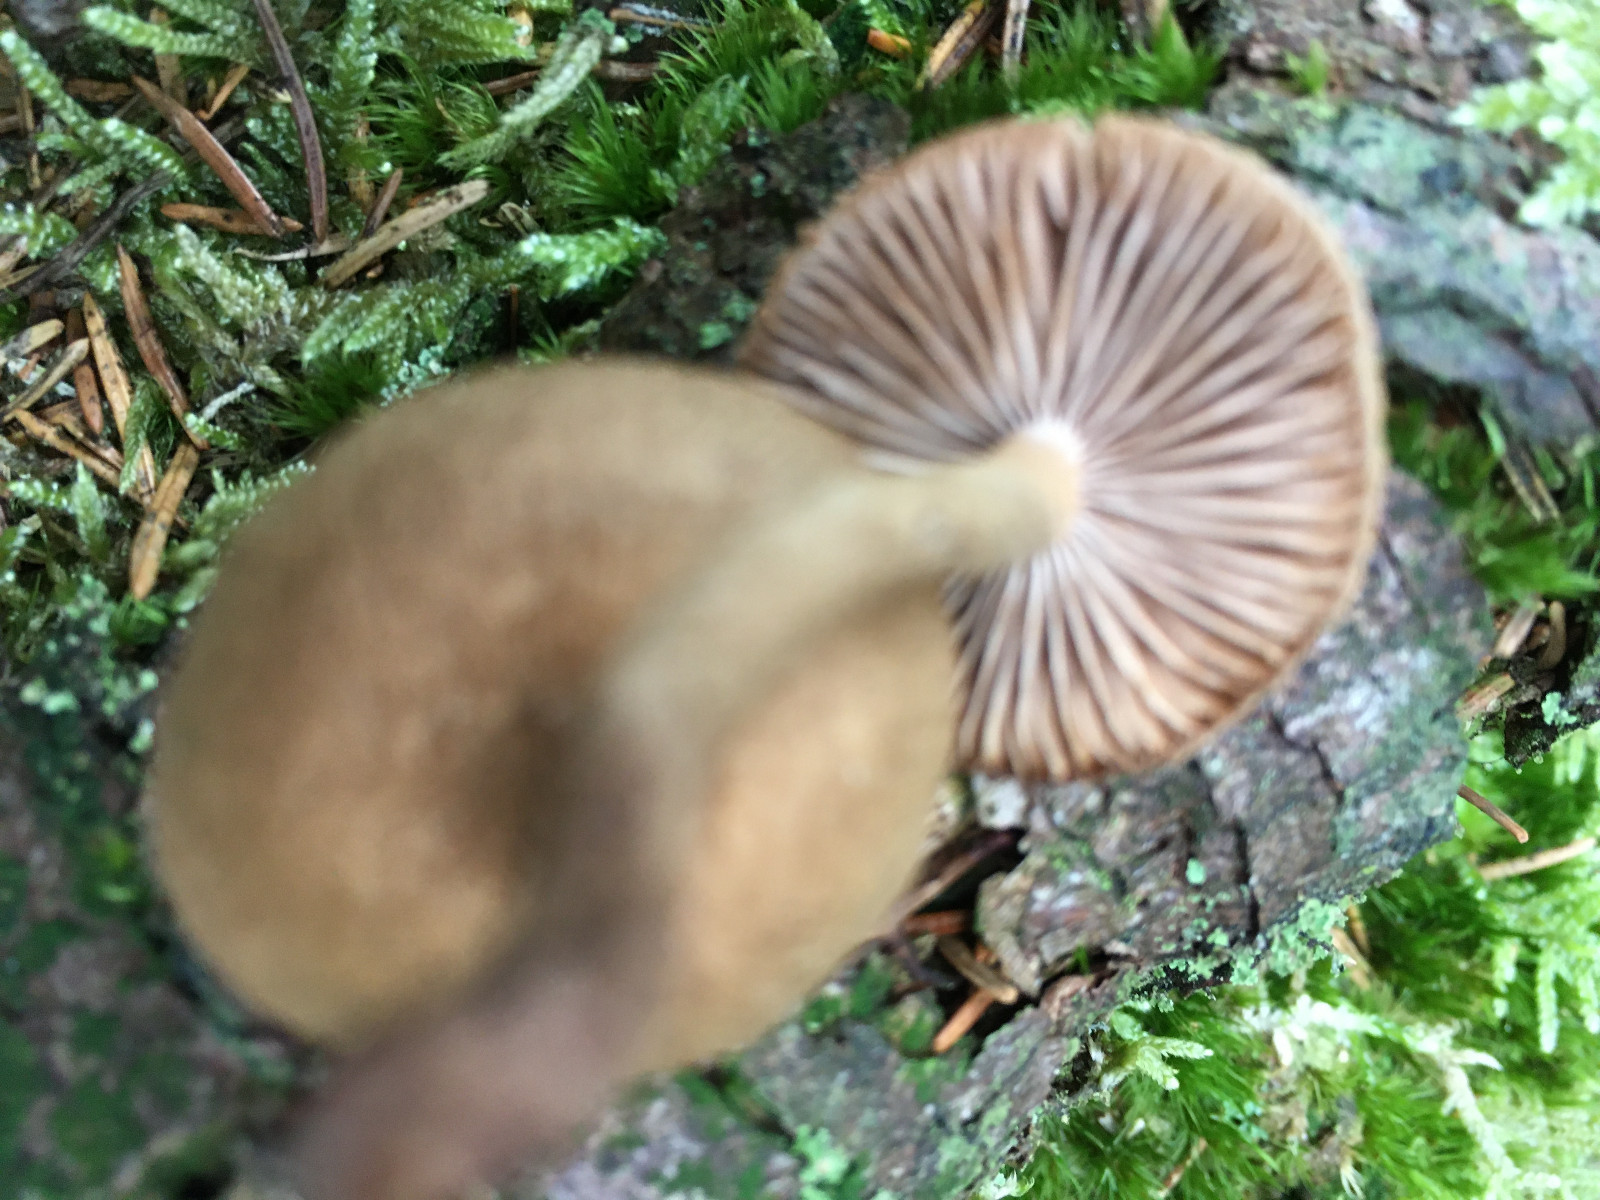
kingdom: Fungi
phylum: Basidiomycota
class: Agaricomycetes
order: Agaricales
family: Inocybaceae
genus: Inocybe
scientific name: Inocybe
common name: trævlhat
